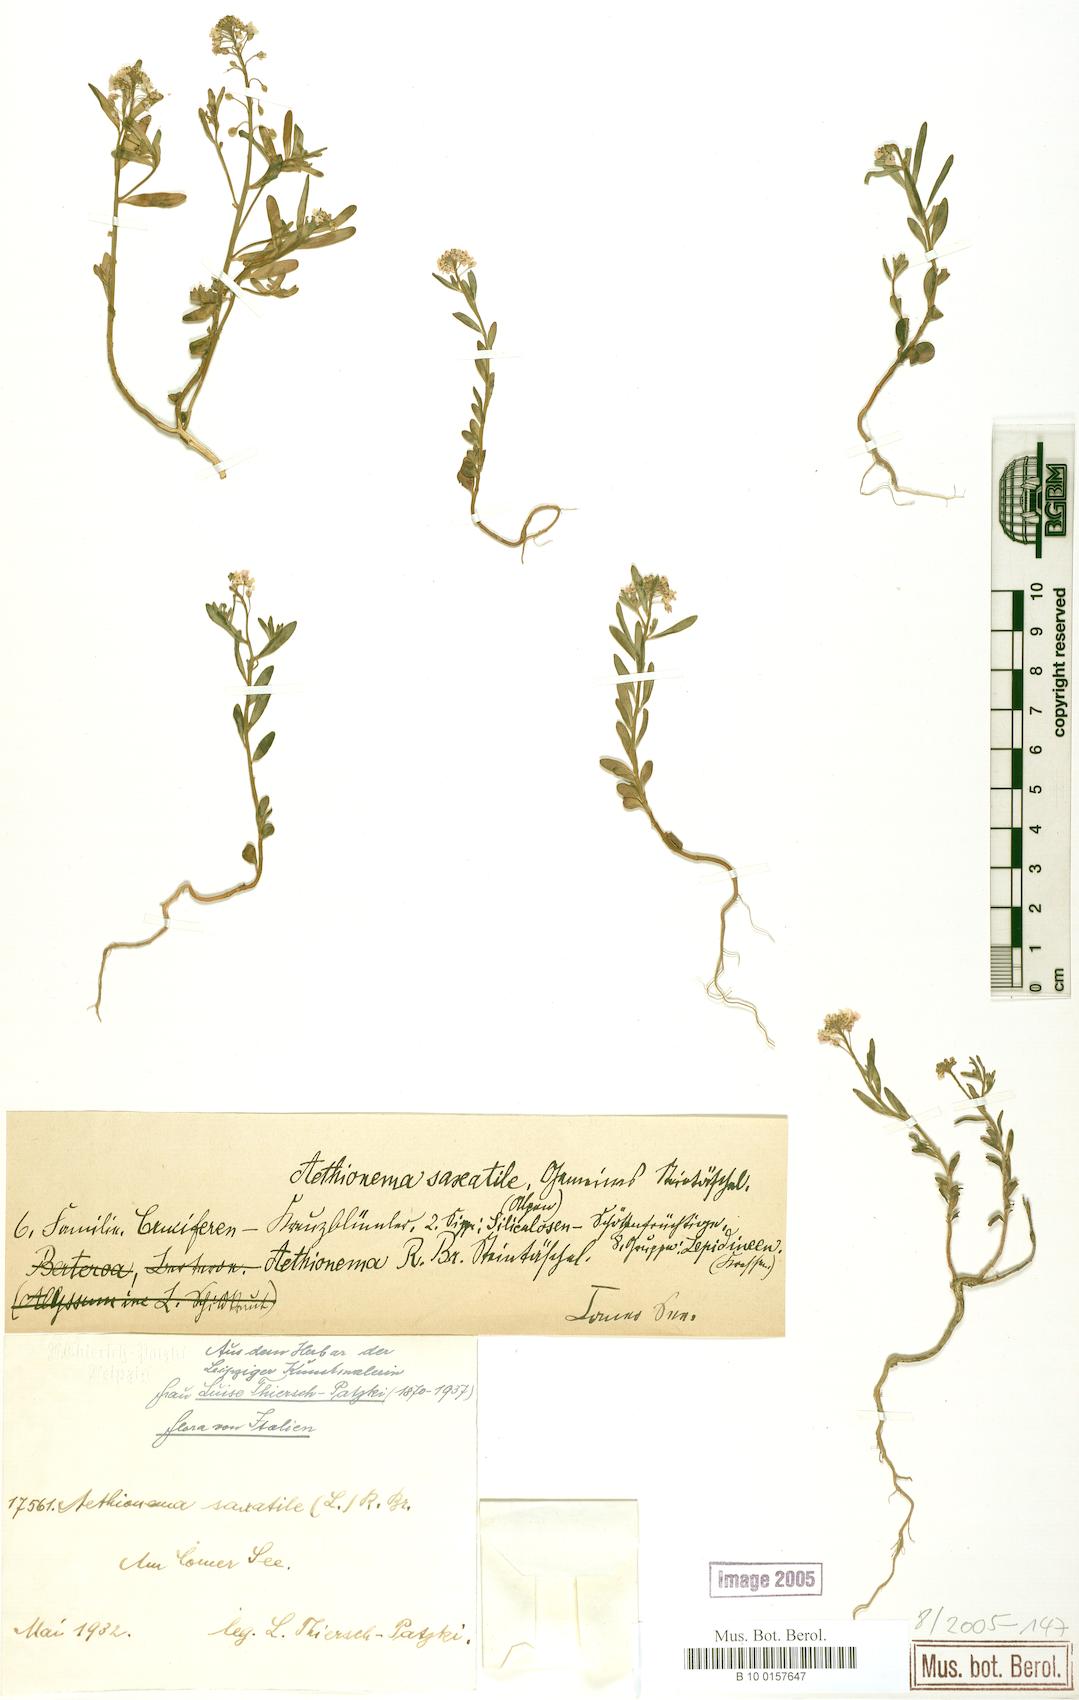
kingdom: Plantae
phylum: Tracheophyta
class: Magnoliopsida
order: Brassicales
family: Brassicaceae
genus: Aethionema
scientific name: Aethionema saxatile
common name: Burnt candytuft
